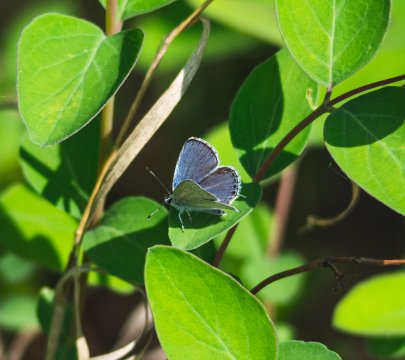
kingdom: Animalia
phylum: Arthropoda
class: Insecta
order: Lepidoptera
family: Lycaenidae
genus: Elkalyce
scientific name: Elkalyce amyntula
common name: Western Tailed-Blue
